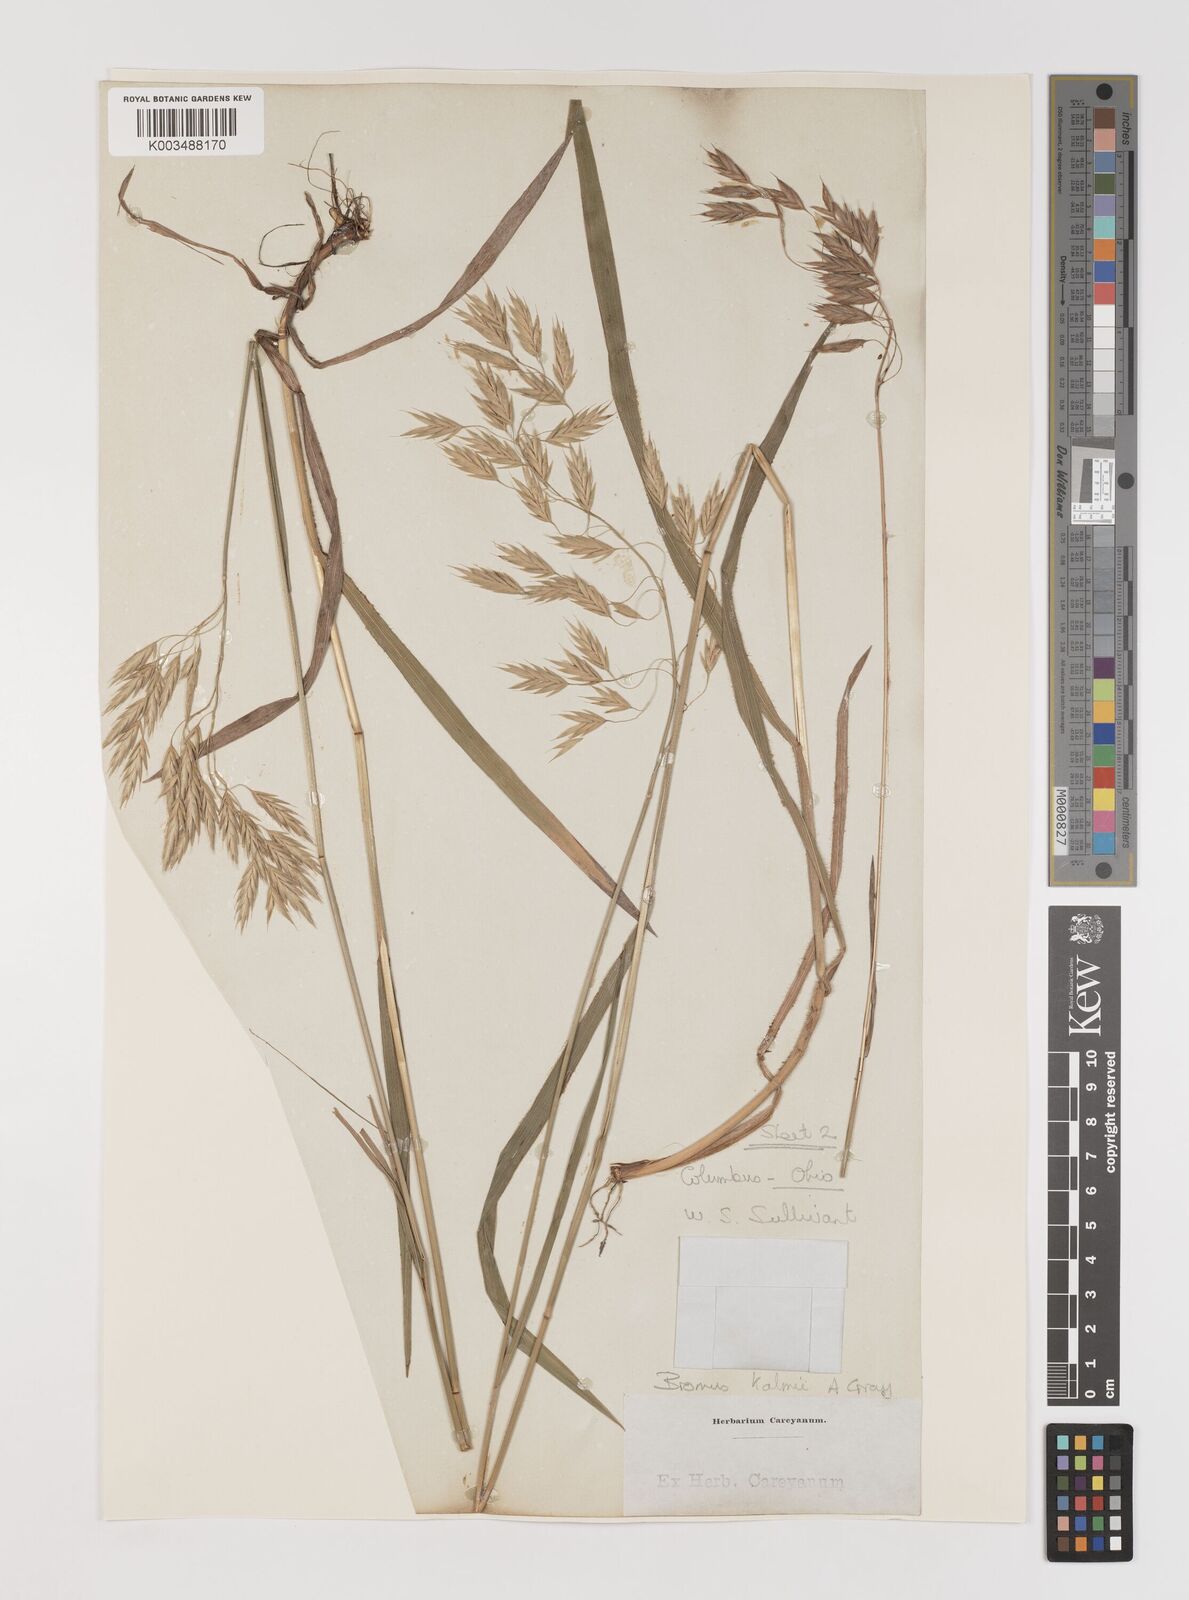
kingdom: Plantae
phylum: Tracheophyta
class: Liliopsida
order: Poales
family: Poaceae
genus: Bromus
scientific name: Bromus kalmii
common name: Kalm brome
